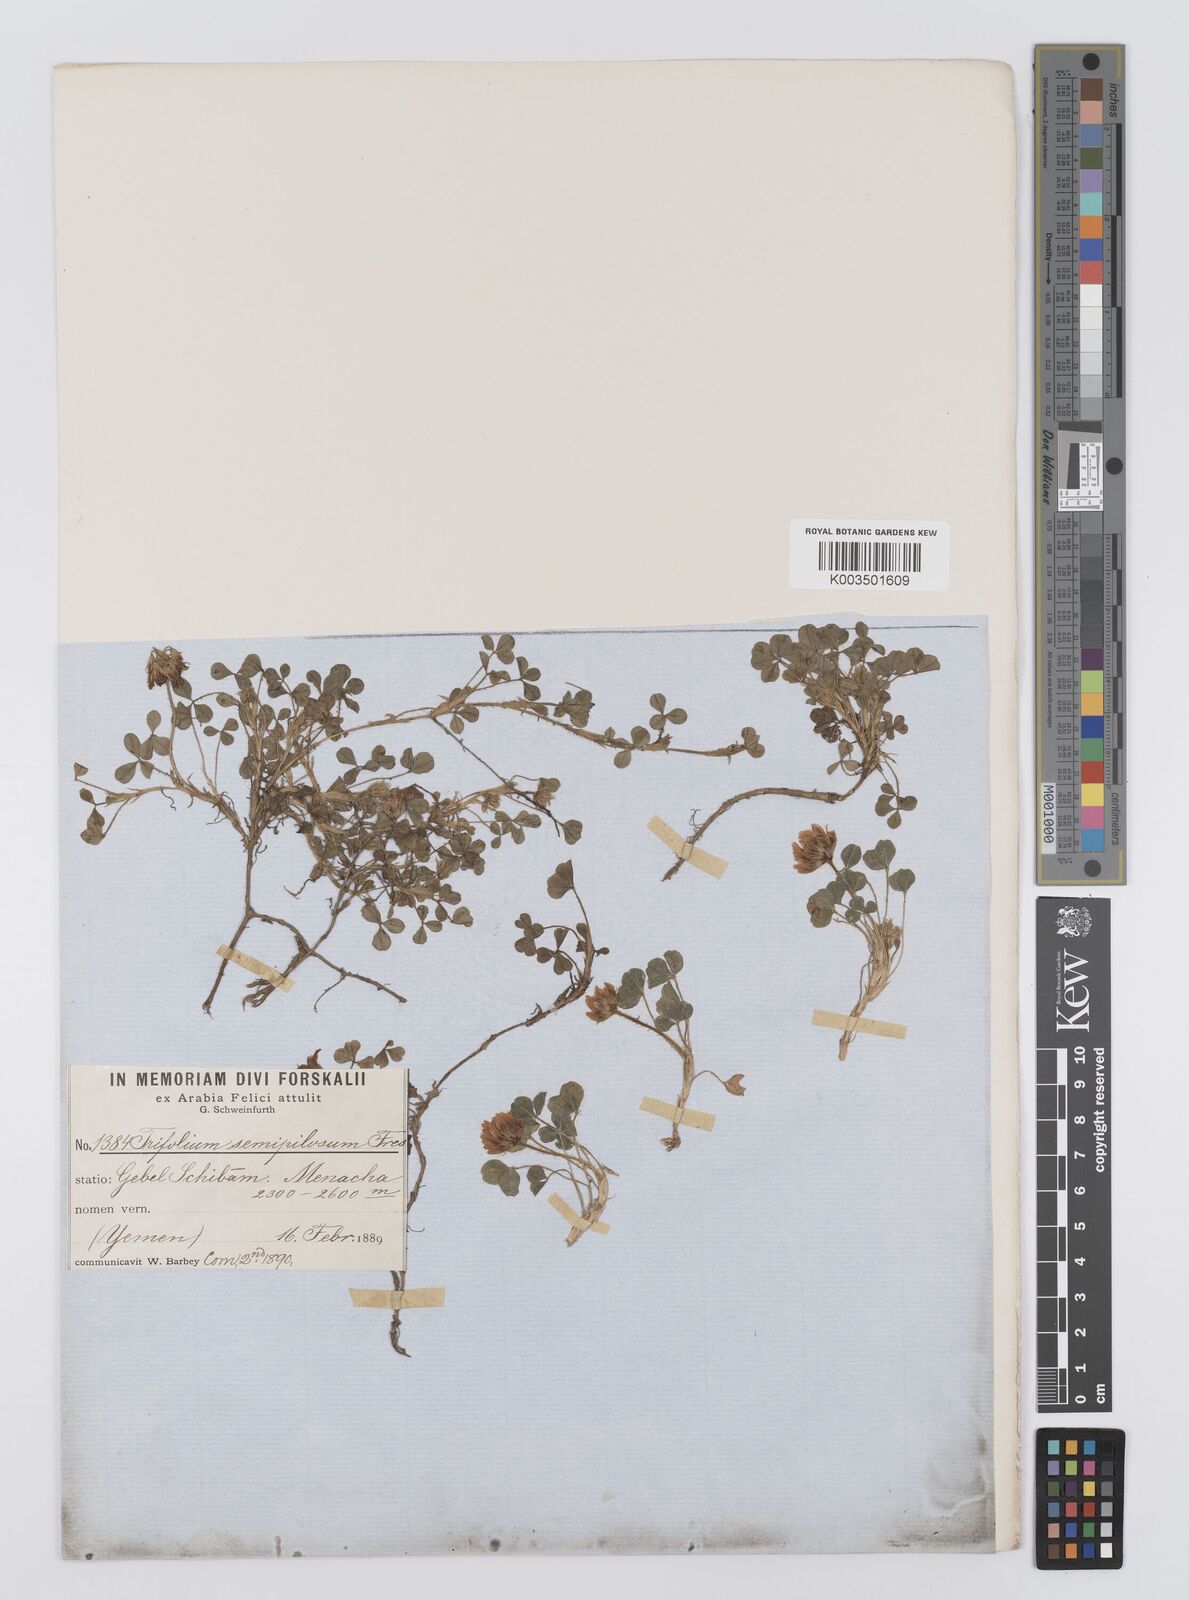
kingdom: Plantae
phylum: Tracheophyta
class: Magnoliopsida
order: Fabales
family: Fabaceae
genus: Trifolium
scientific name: Trifolium semipilosum
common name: Kenya clover
